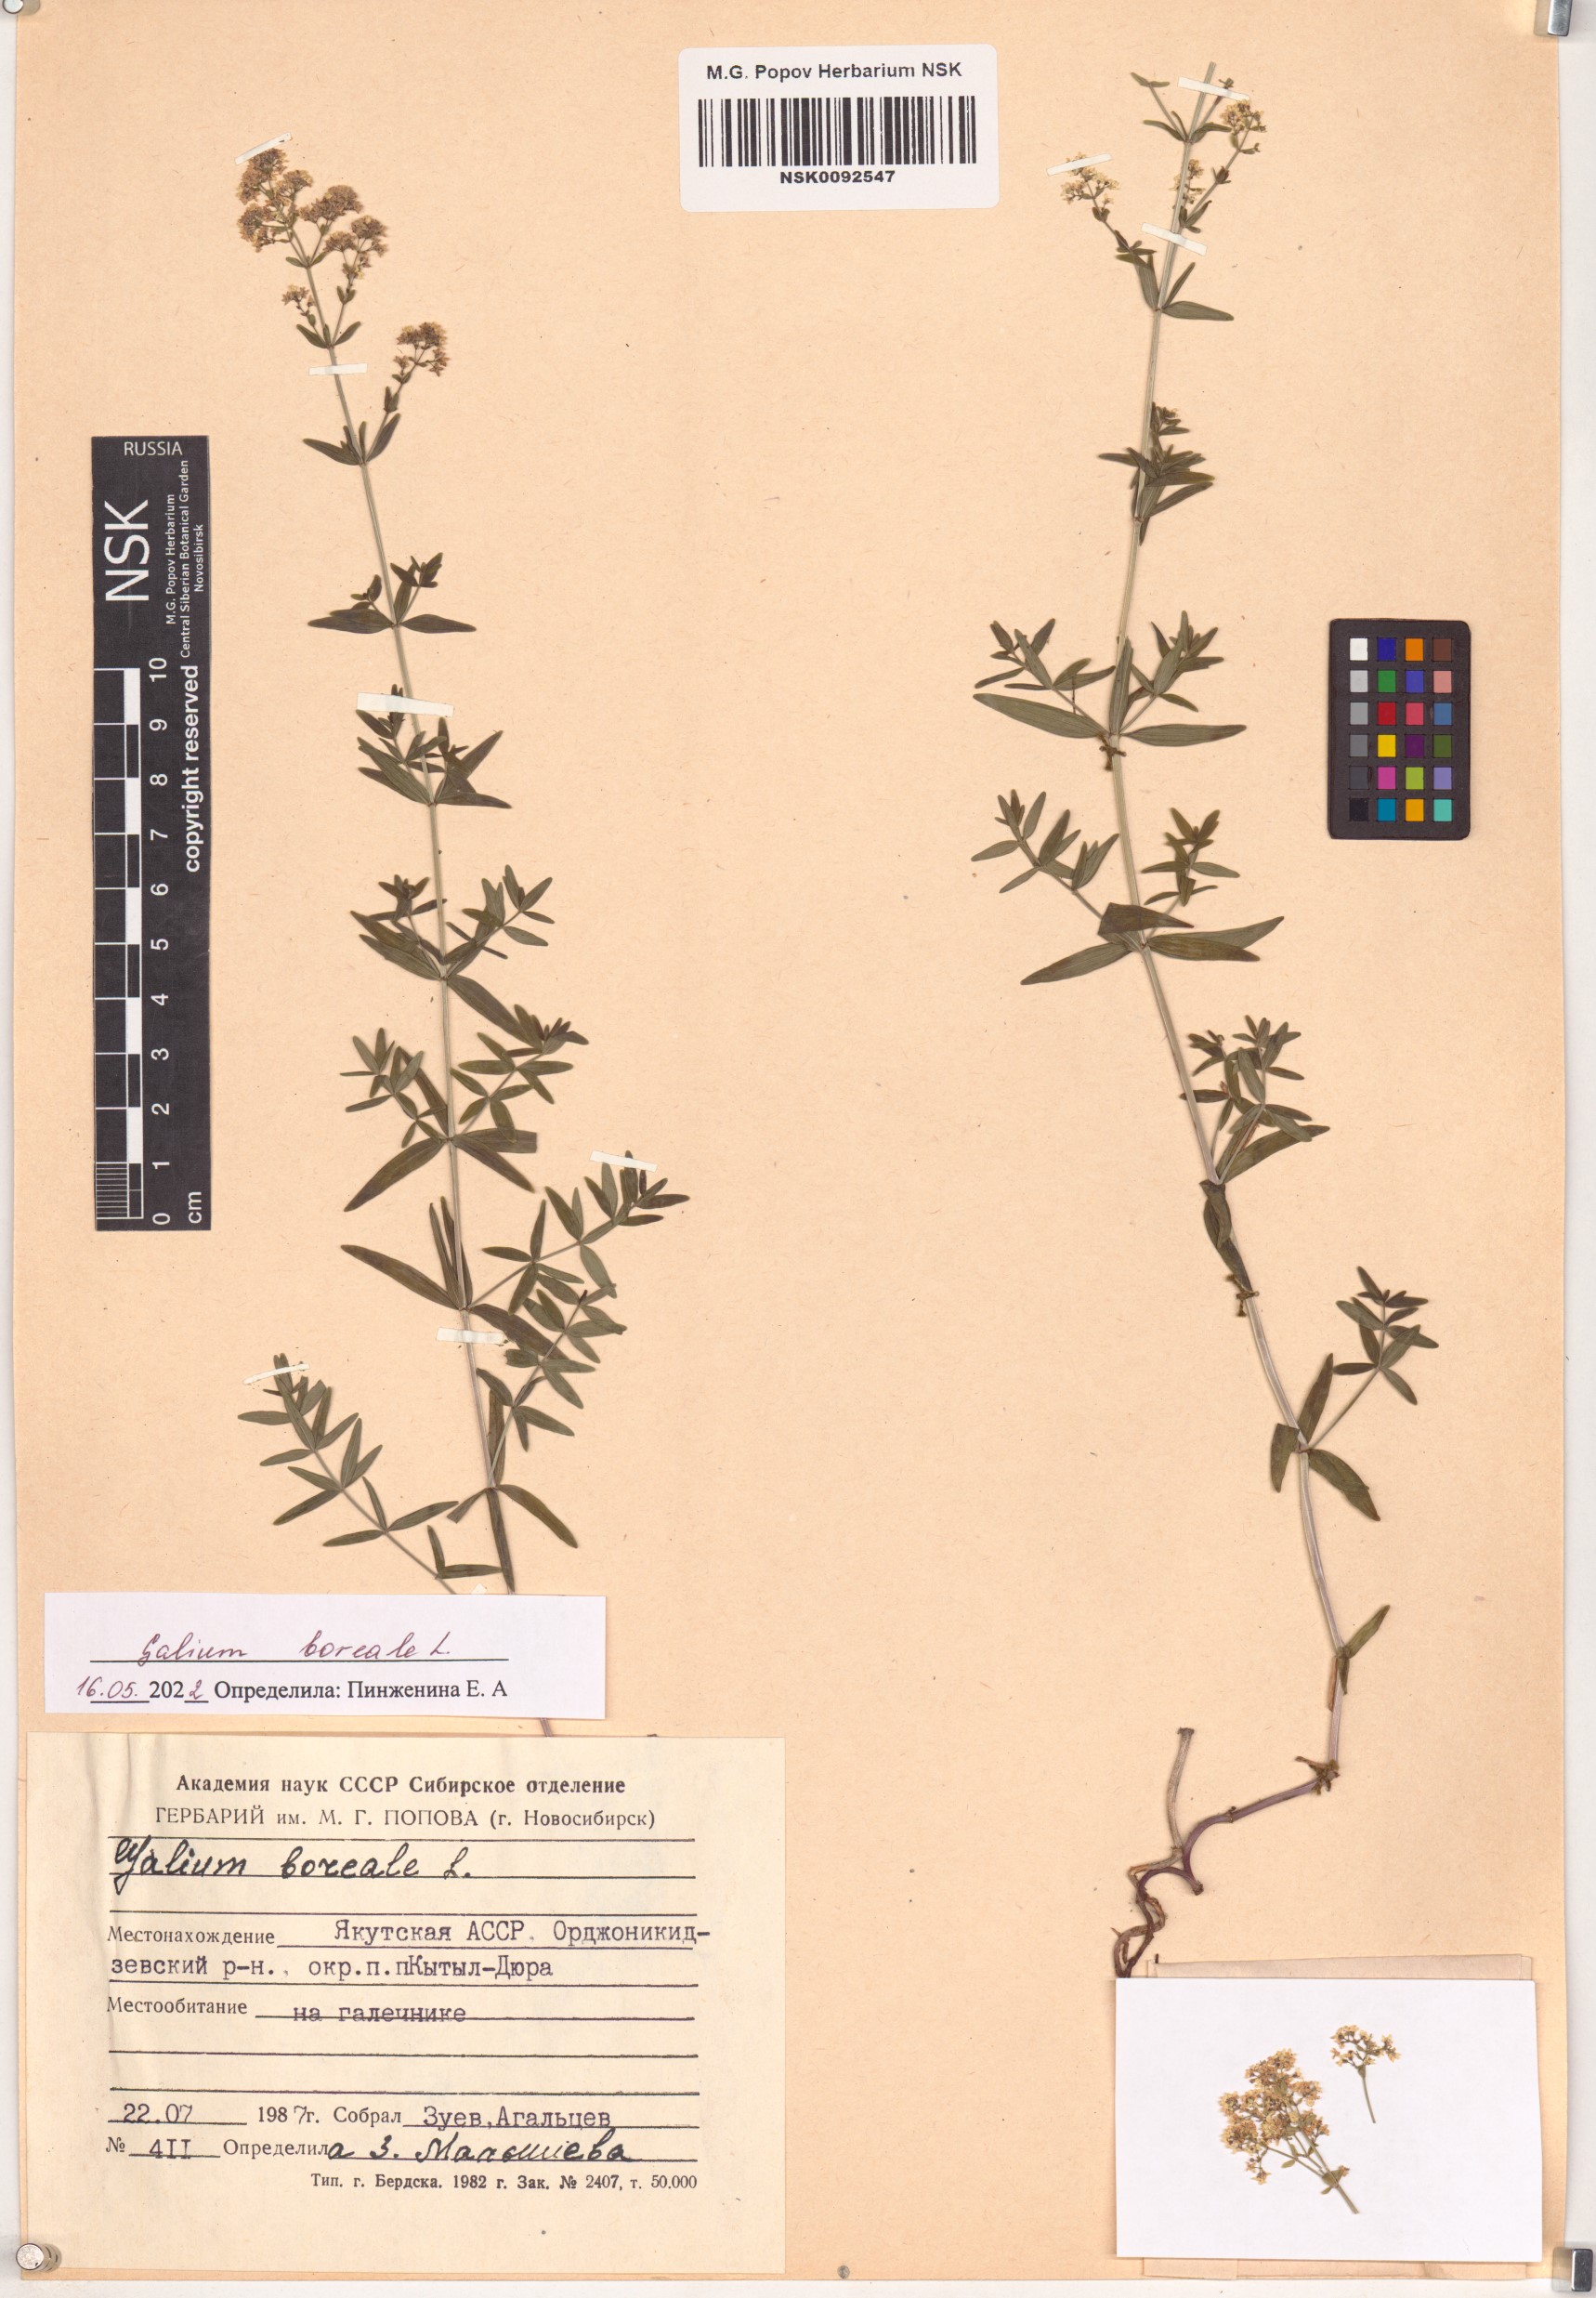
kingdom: Plantae
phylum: Tracheophyta
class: Magnoliopsida
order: Gentianales
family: Rubiaceae
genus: Galium
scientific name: Galium boreale
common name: Northern bedstraw
